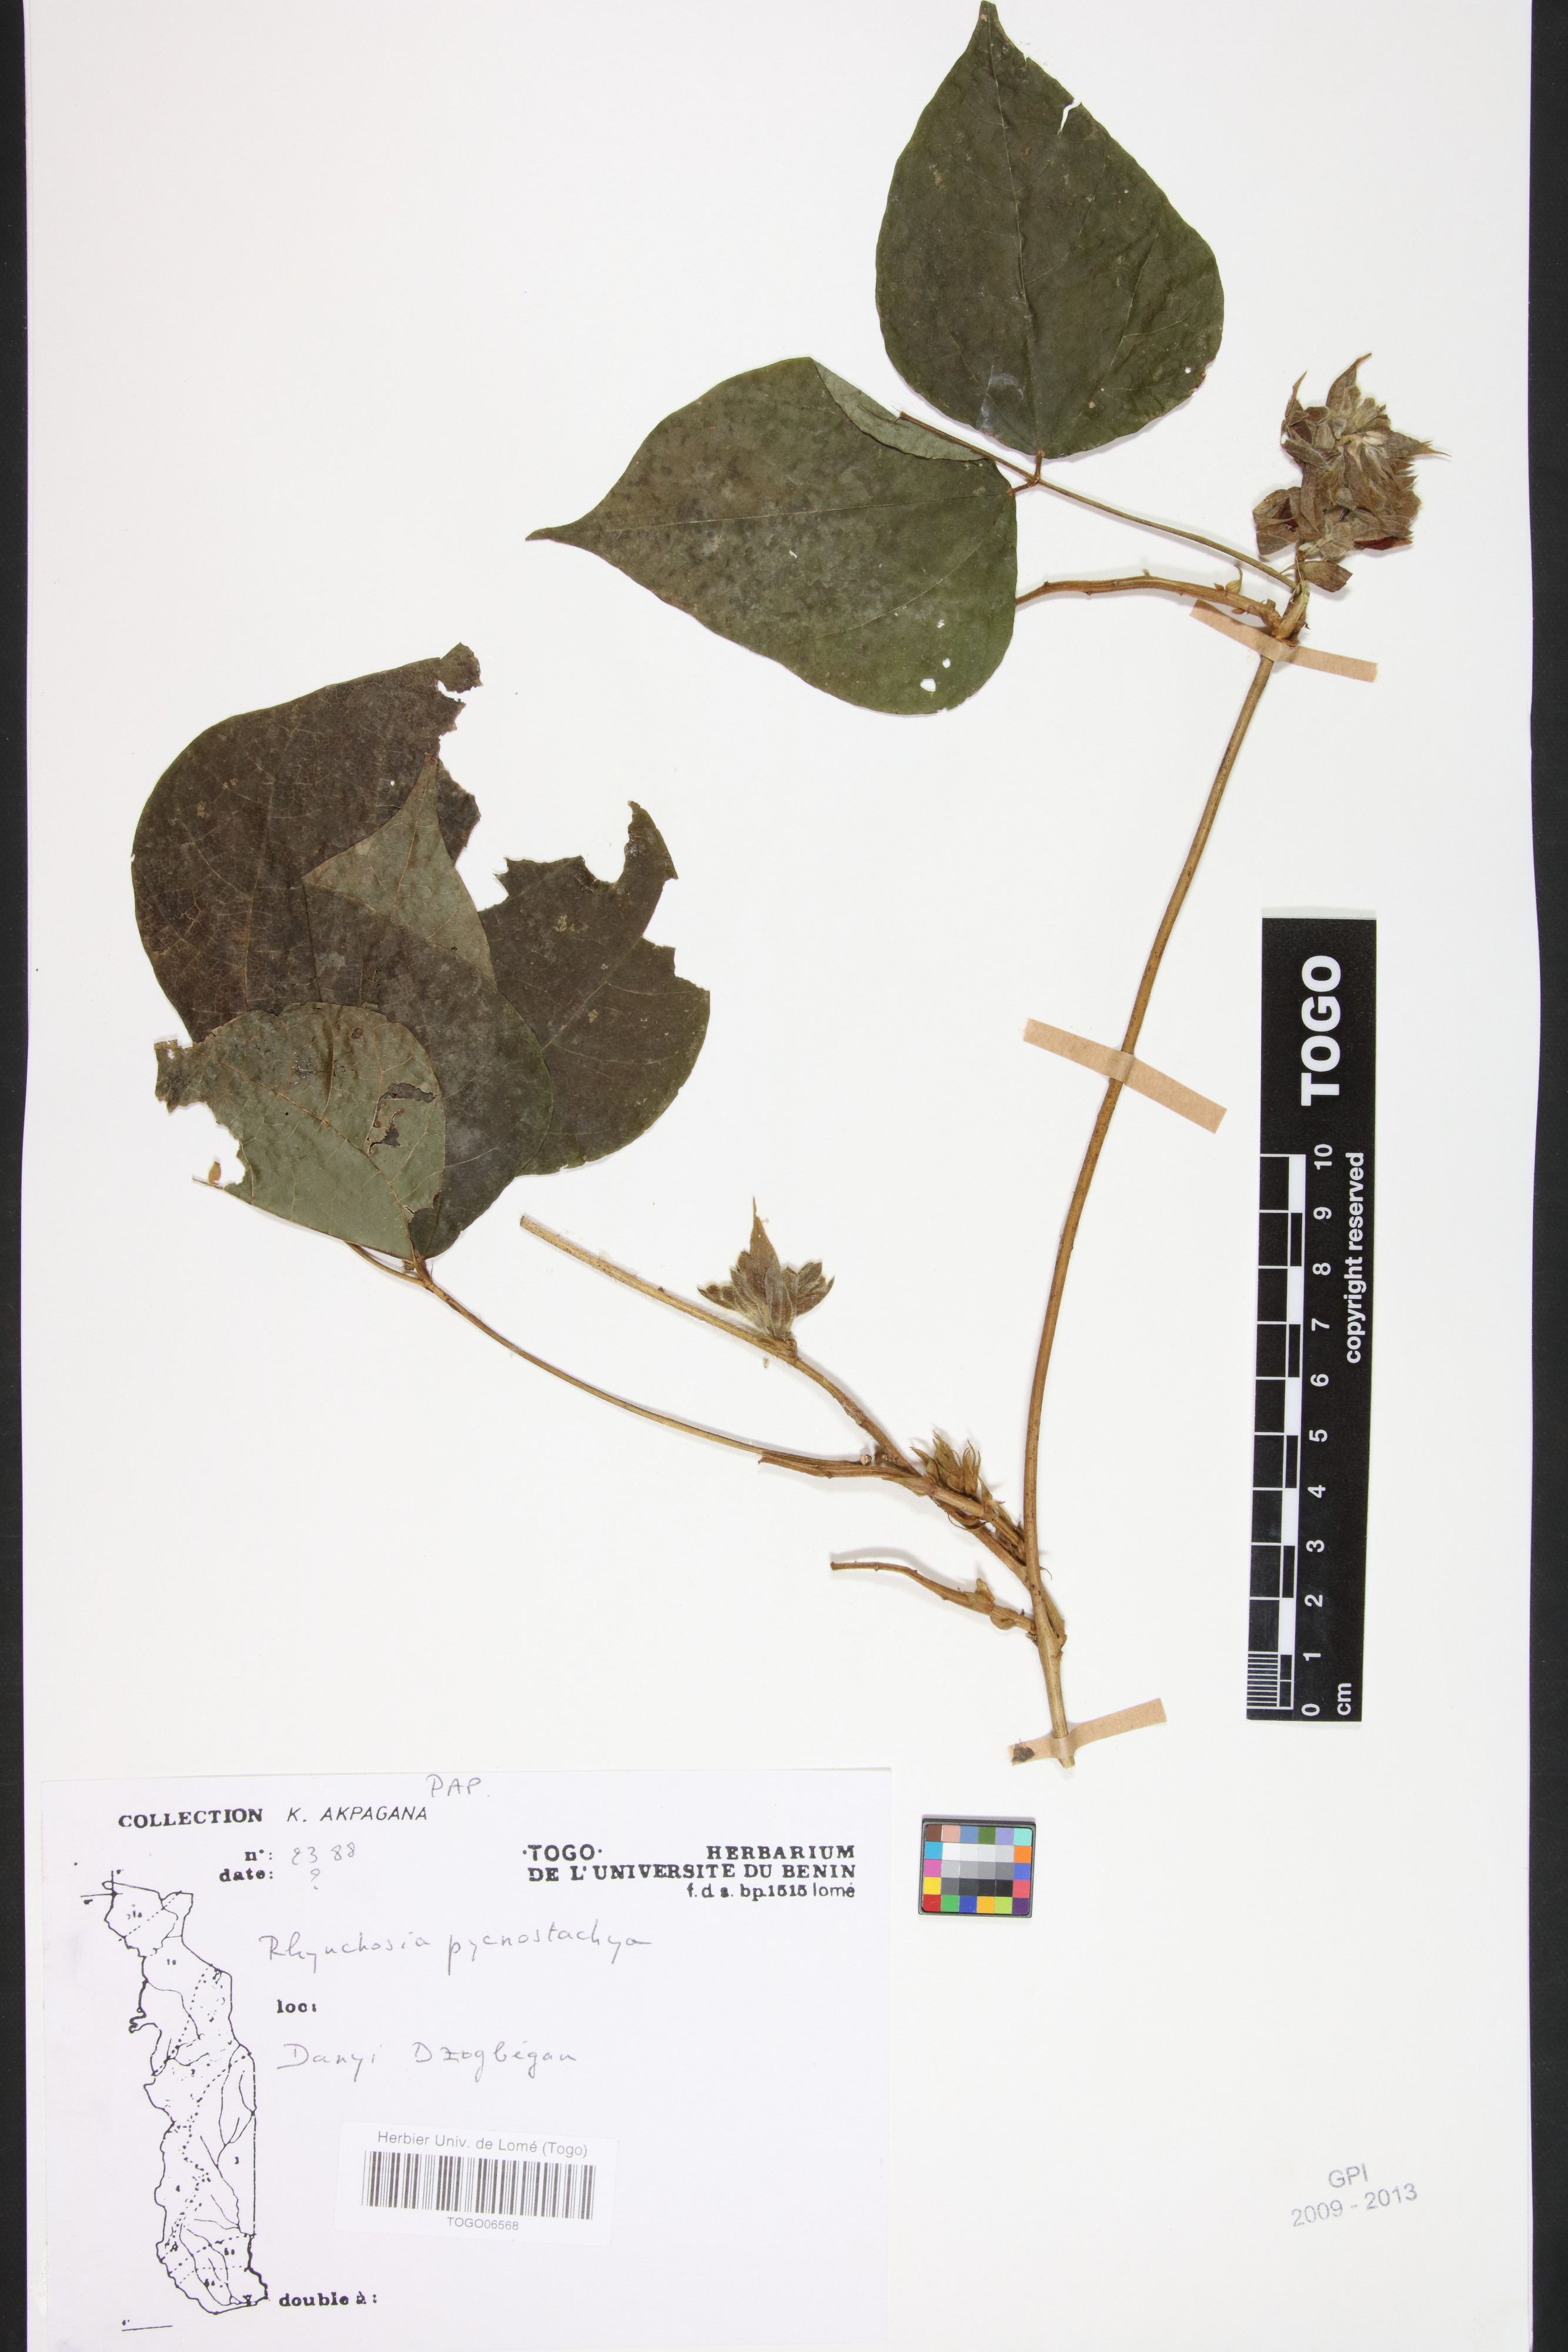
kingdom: Plantae
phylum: Tracheophyta
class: Magnoliopsida
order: Fabales
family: Fabaceae
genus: Rhynchosia
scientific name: Rhynchosia pycnostachya
